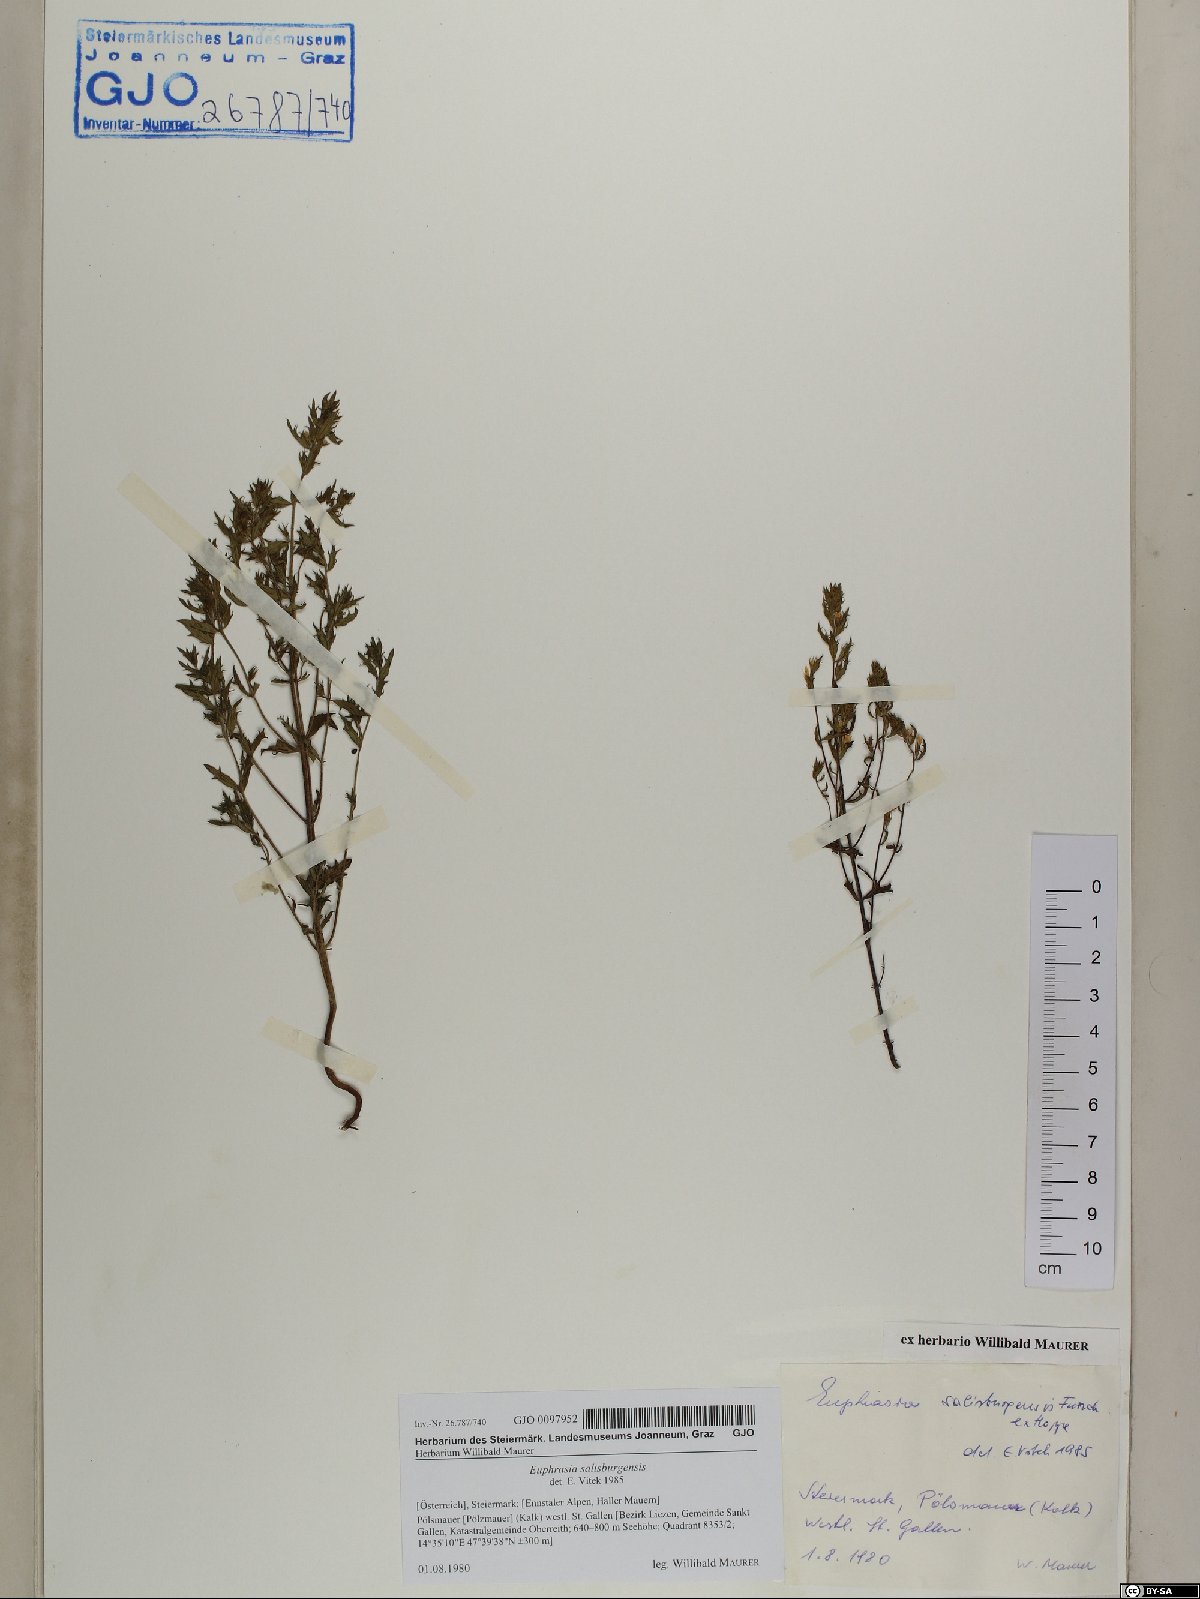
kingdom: Plantae
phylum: Tracheophyta
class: Magnoliopsida
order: Lamiales
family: Orobanchaceae
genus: Euphrasia
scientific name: Euphrasia salisburgensis
